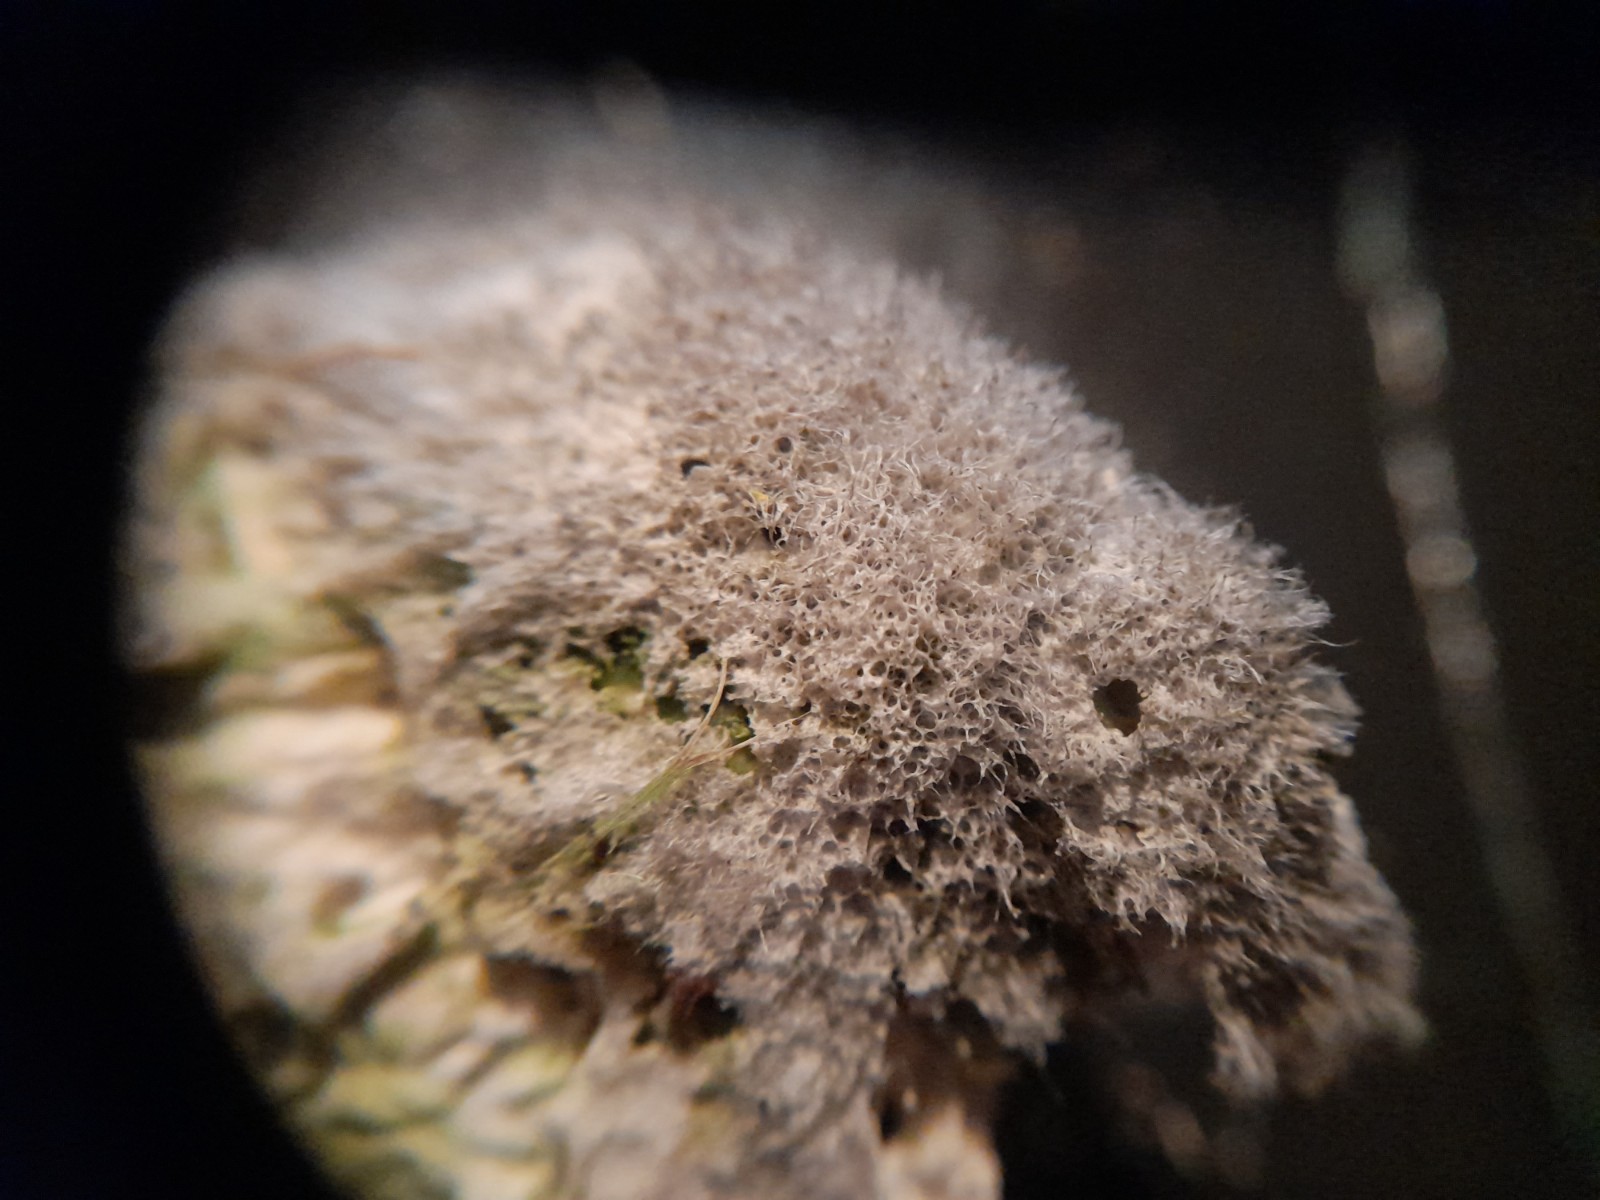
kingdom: Fungi
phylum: Basidiomycota
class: Agaricomycetes
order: Polyporales
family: Polyporaceae
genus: Trametes
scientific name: Trametes
